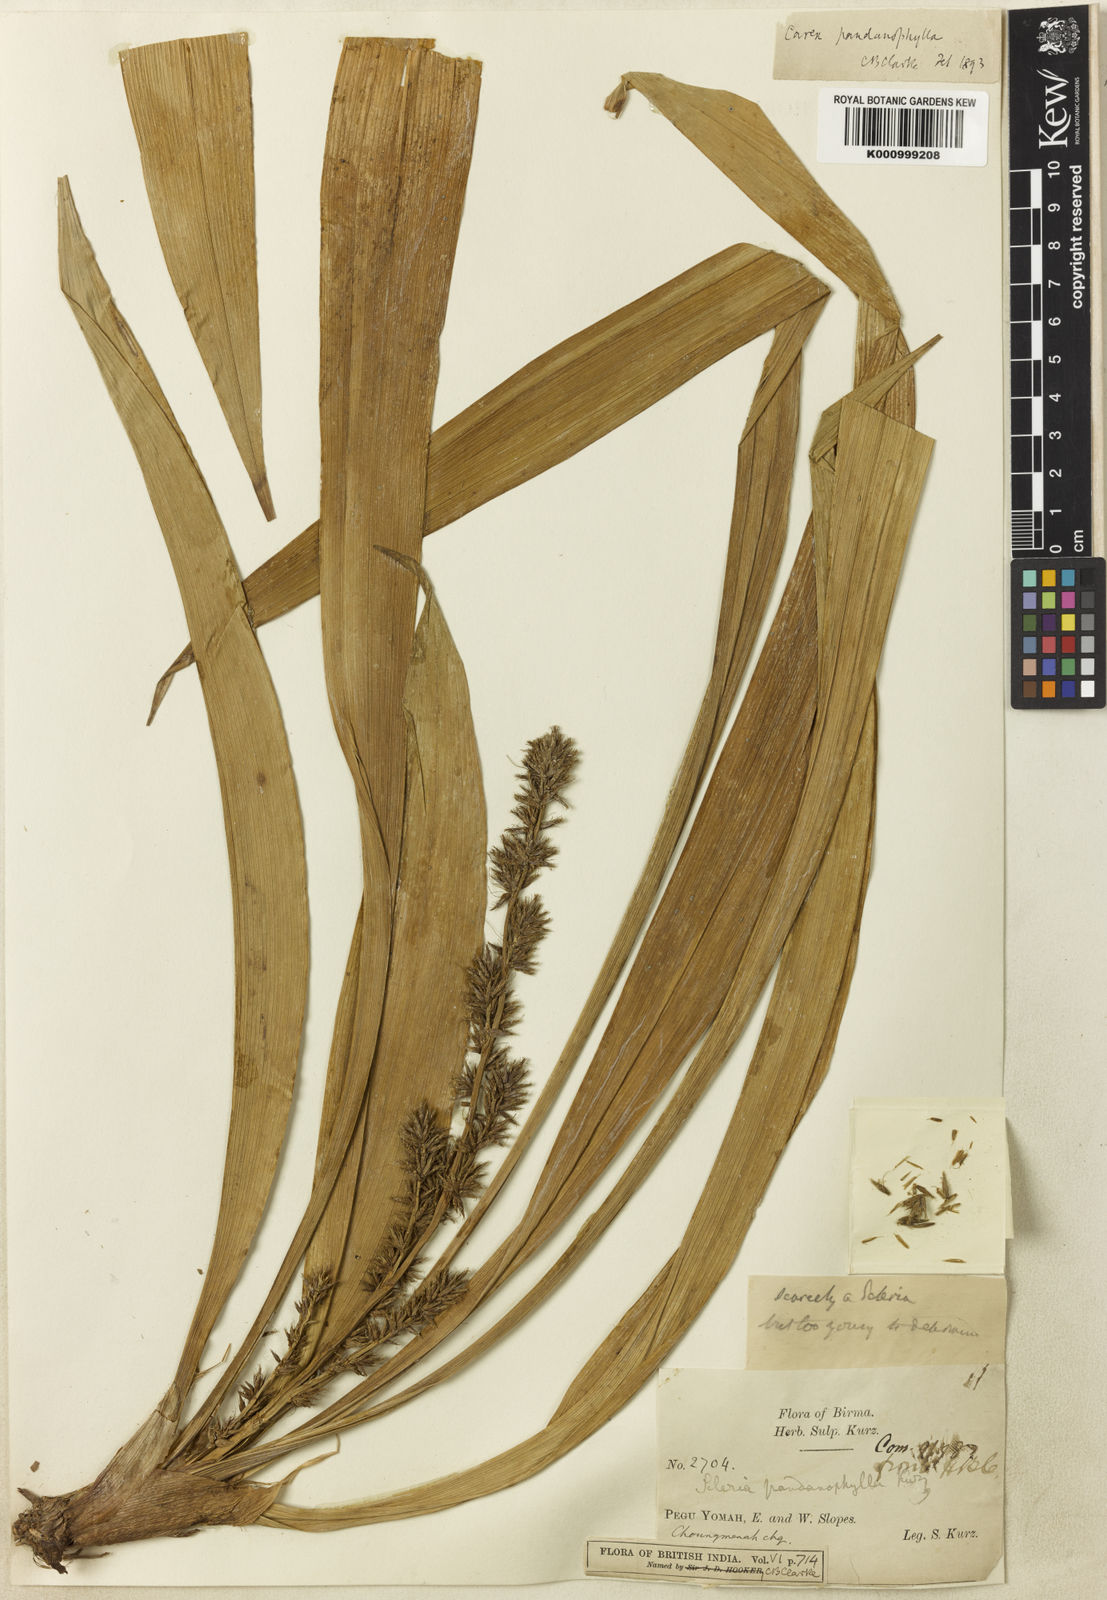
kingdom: Plantae
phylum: Tracheophyta
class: Liliopsida
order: Poales
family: Cyperaceae
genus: Carex
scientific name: Carex pandanophylla
